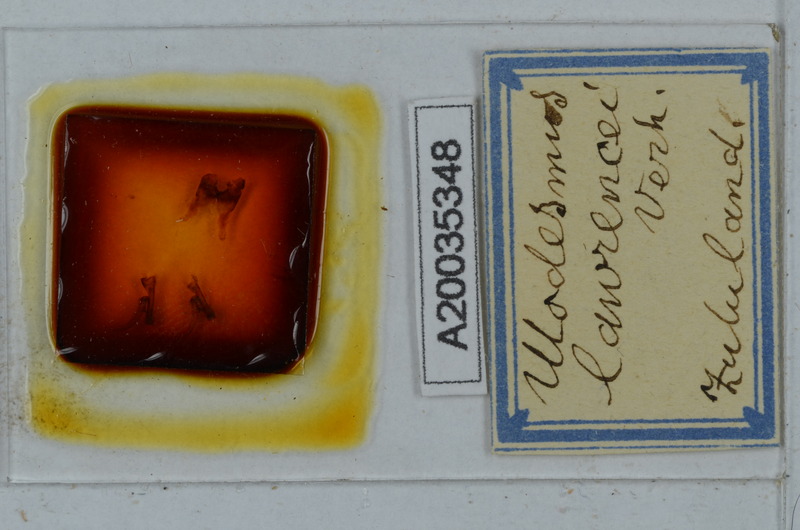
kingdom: Animalia
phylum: Arthropoda
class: Diplopoda
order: Polydesmida
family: Gomphodesmidae
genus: Ulodesmus
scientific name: Ulodesmus lawrencei
